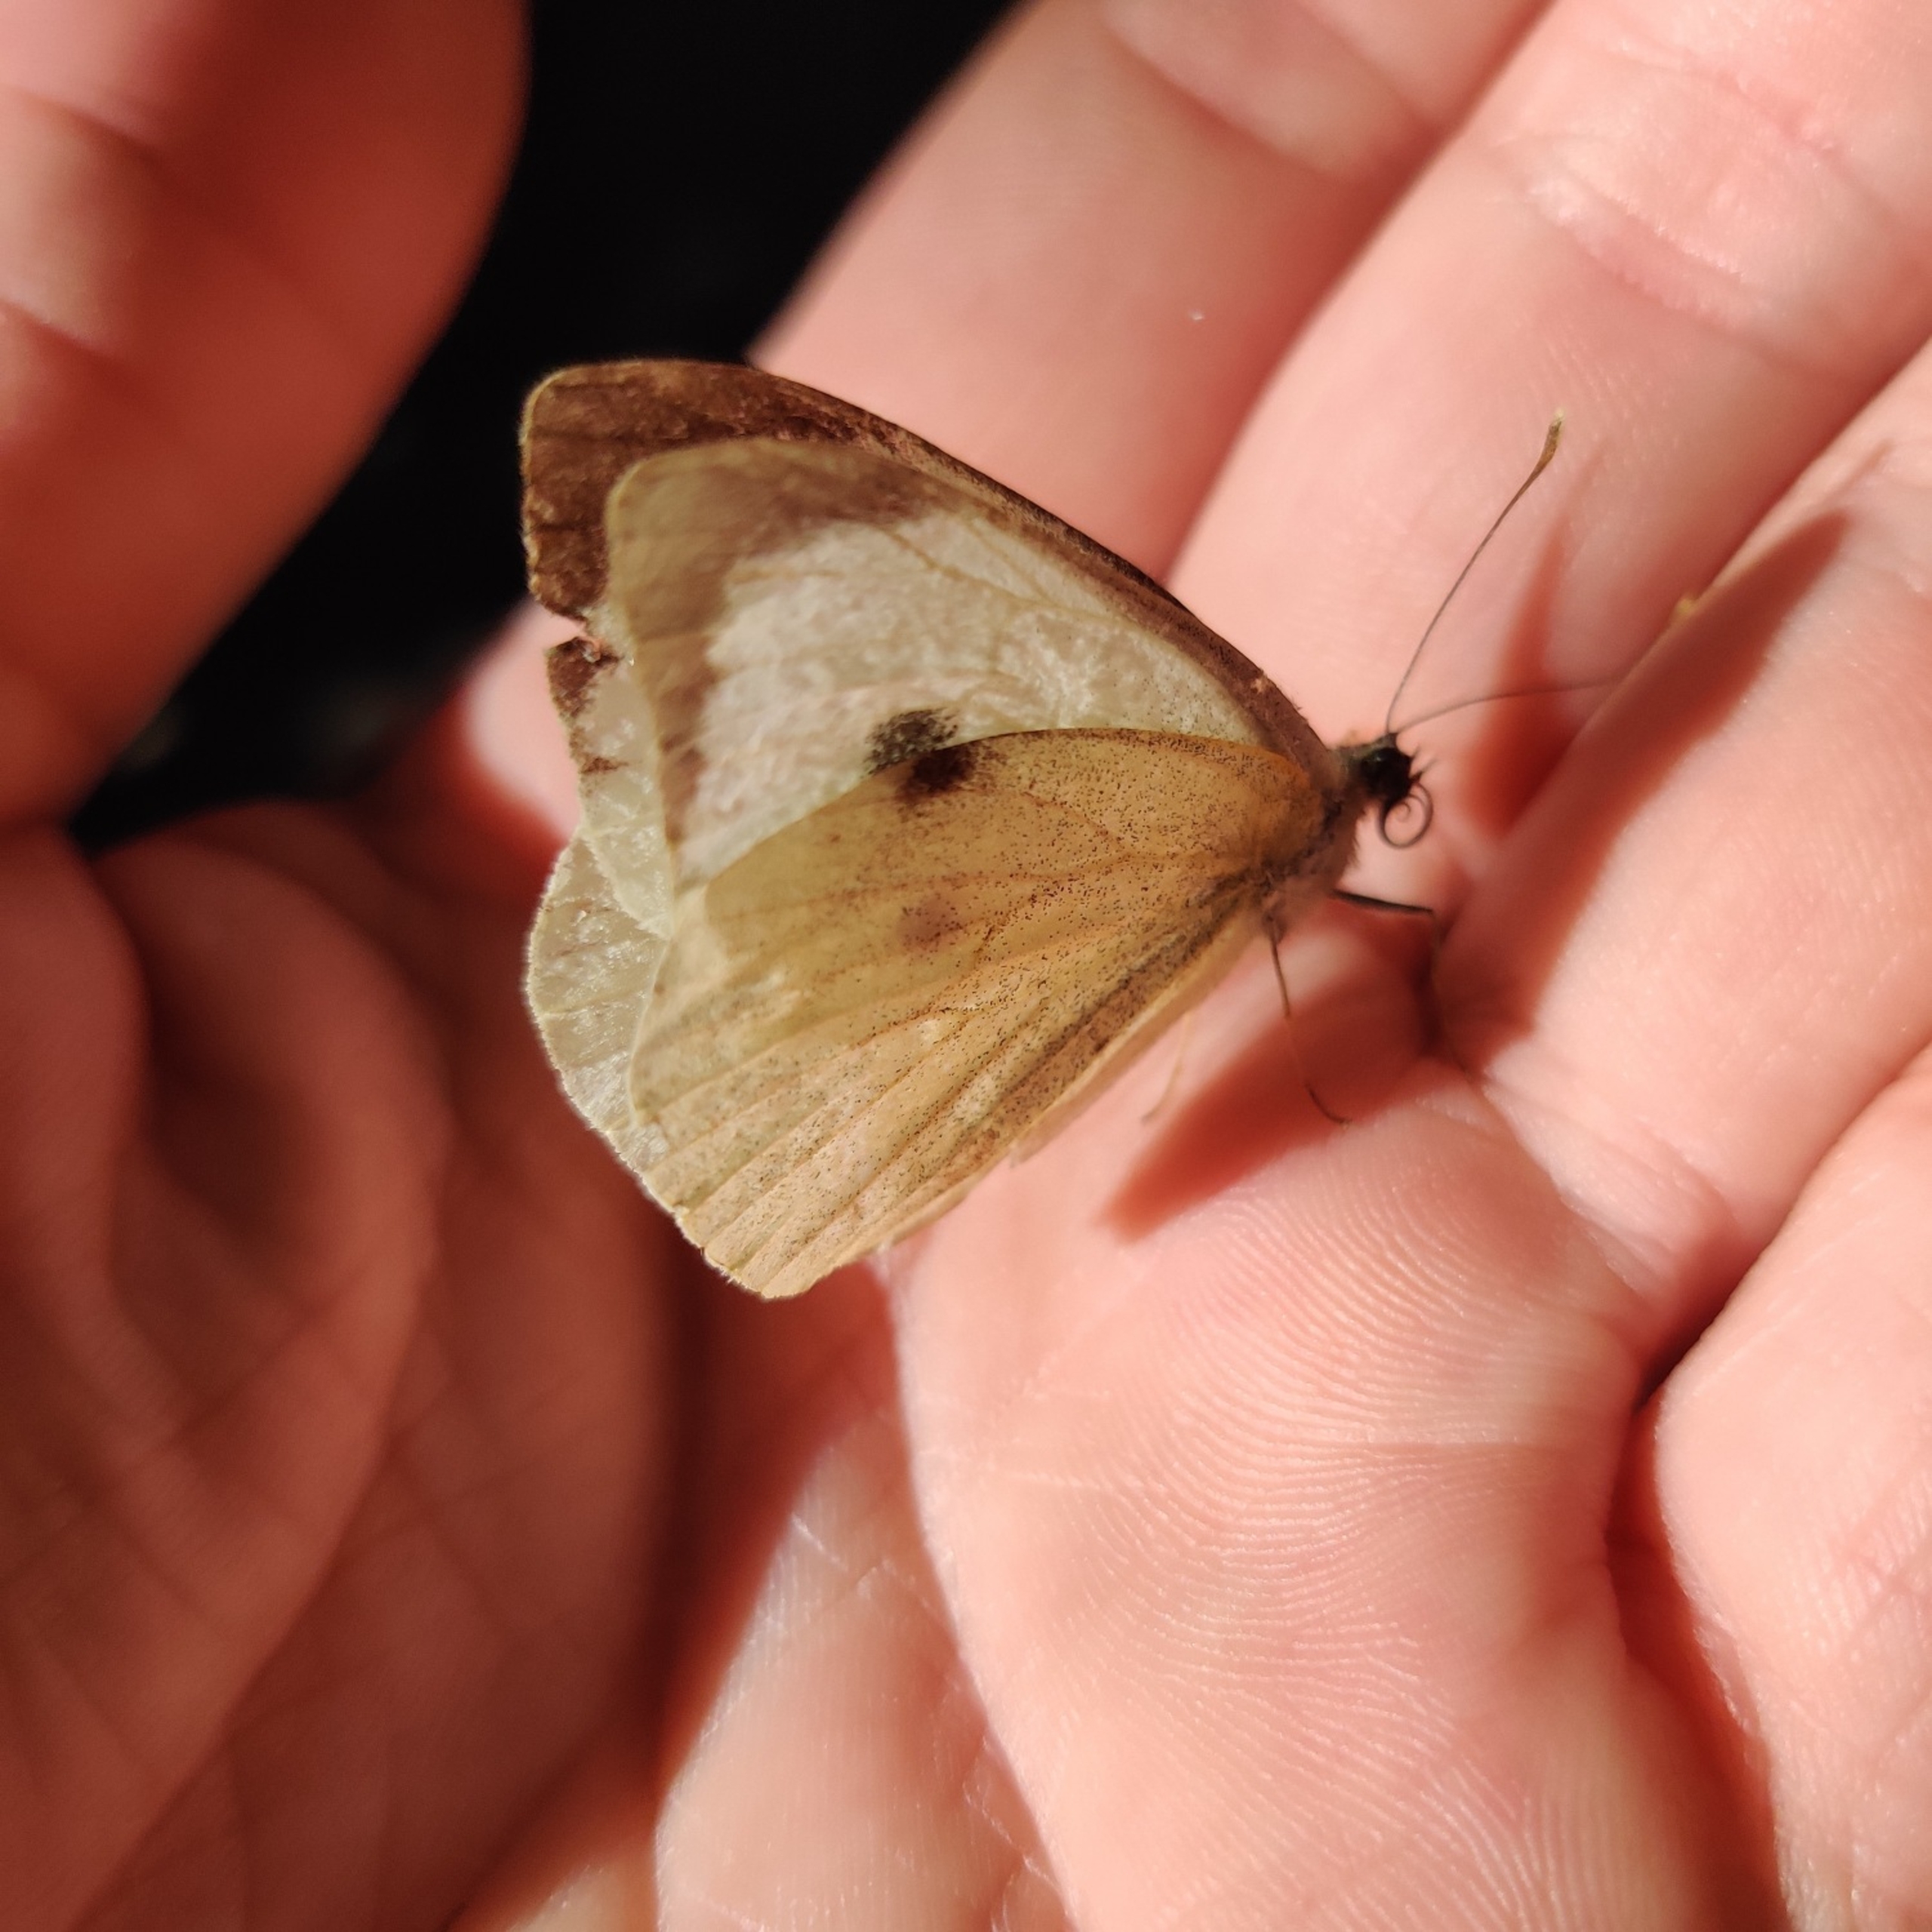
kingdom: Animalia
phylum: Arthropoda
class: Insecta
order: Lepidoptera
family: Pieridae
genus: Pieris
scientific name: Pieris brassicae
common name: Stor kålsommerfugl
